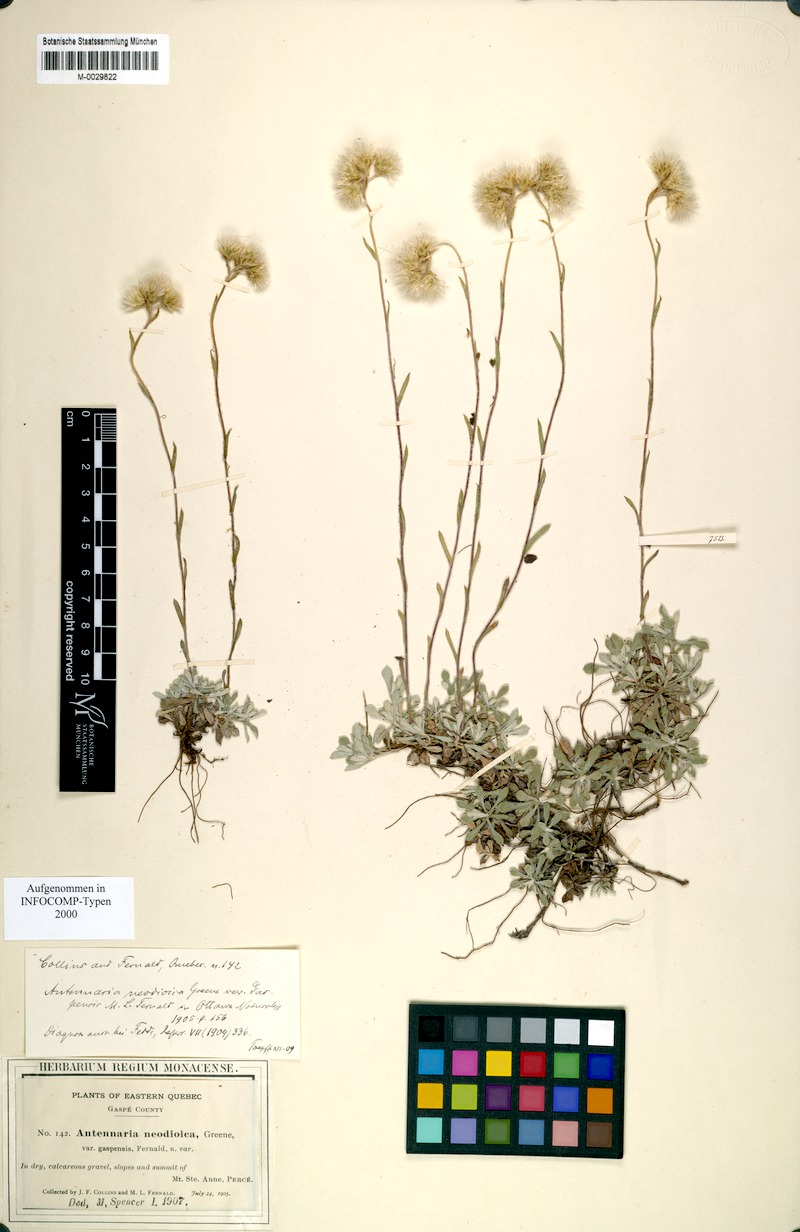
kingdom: Plantae
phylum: Tracheophyta
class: Magnoliopsida
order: Asterales
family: Asteraceae
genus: Antennaria
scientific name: Antennaria rosea
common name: Rosy pussytoes
